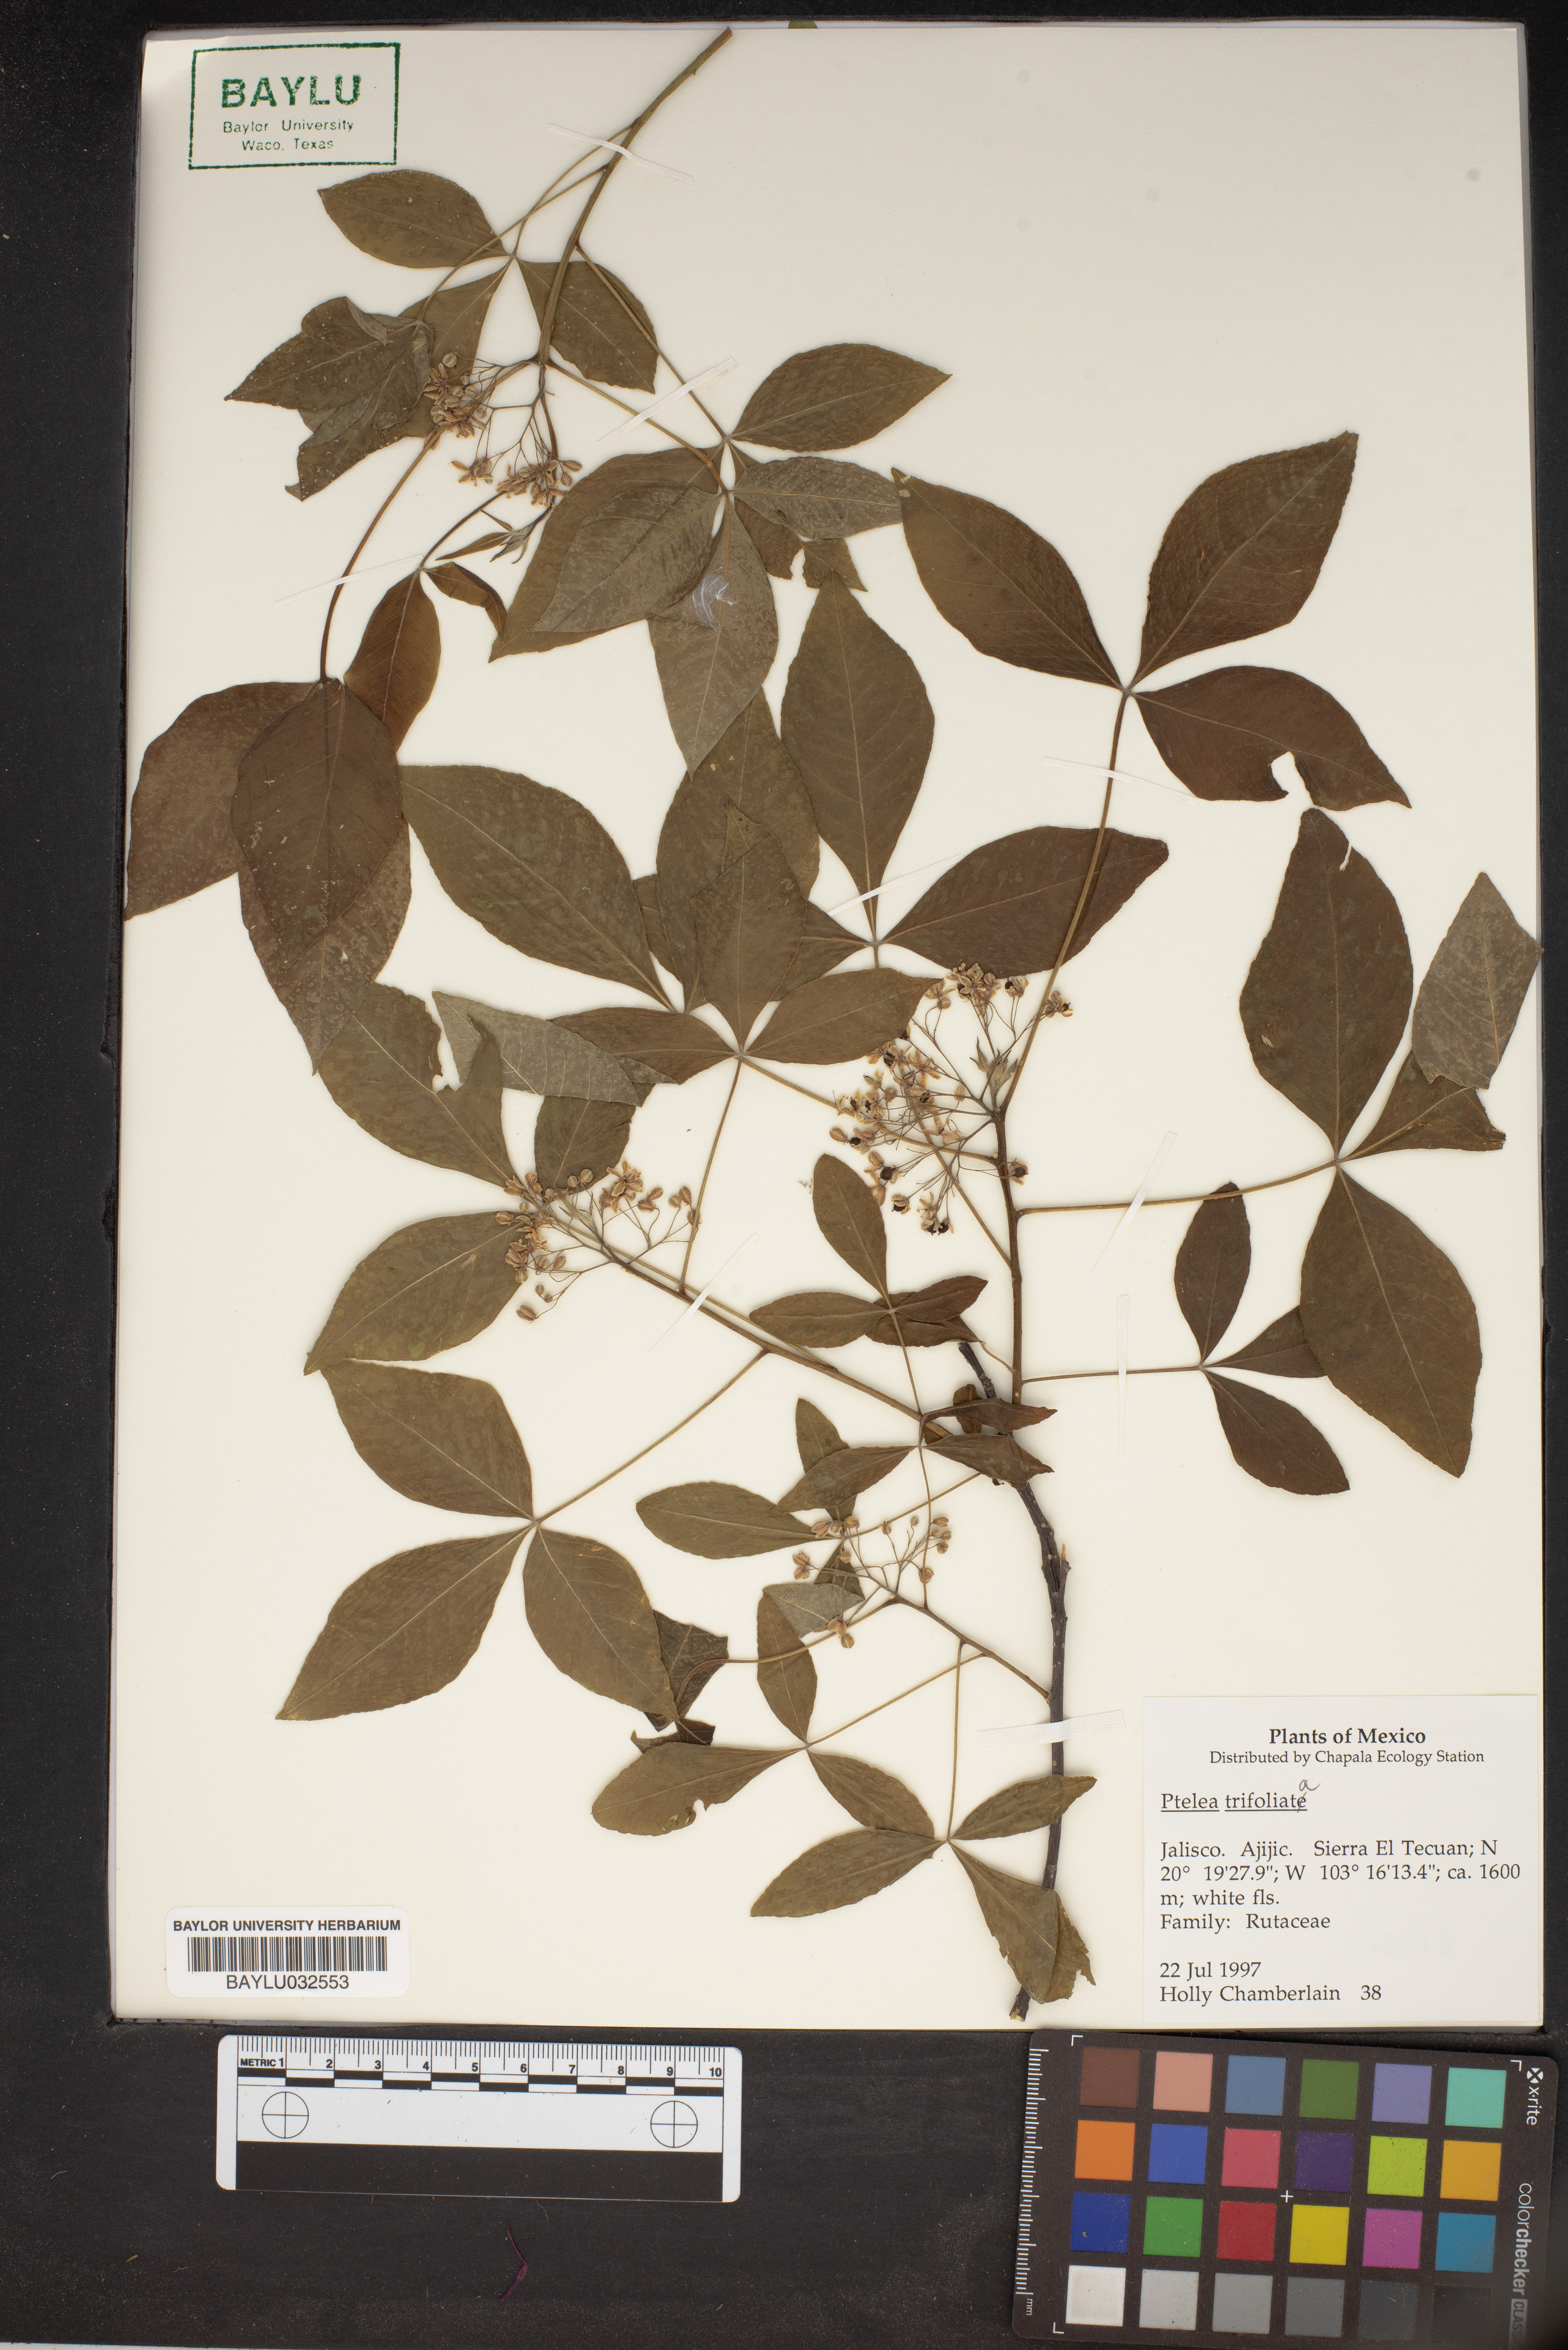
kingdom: Plantae
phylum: Tracheophyta
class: Magnoliopsida
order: Sapindales
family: Rutaceae
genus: Ptelea
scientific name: Ptelea trifoliata
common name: Common hop-tree
